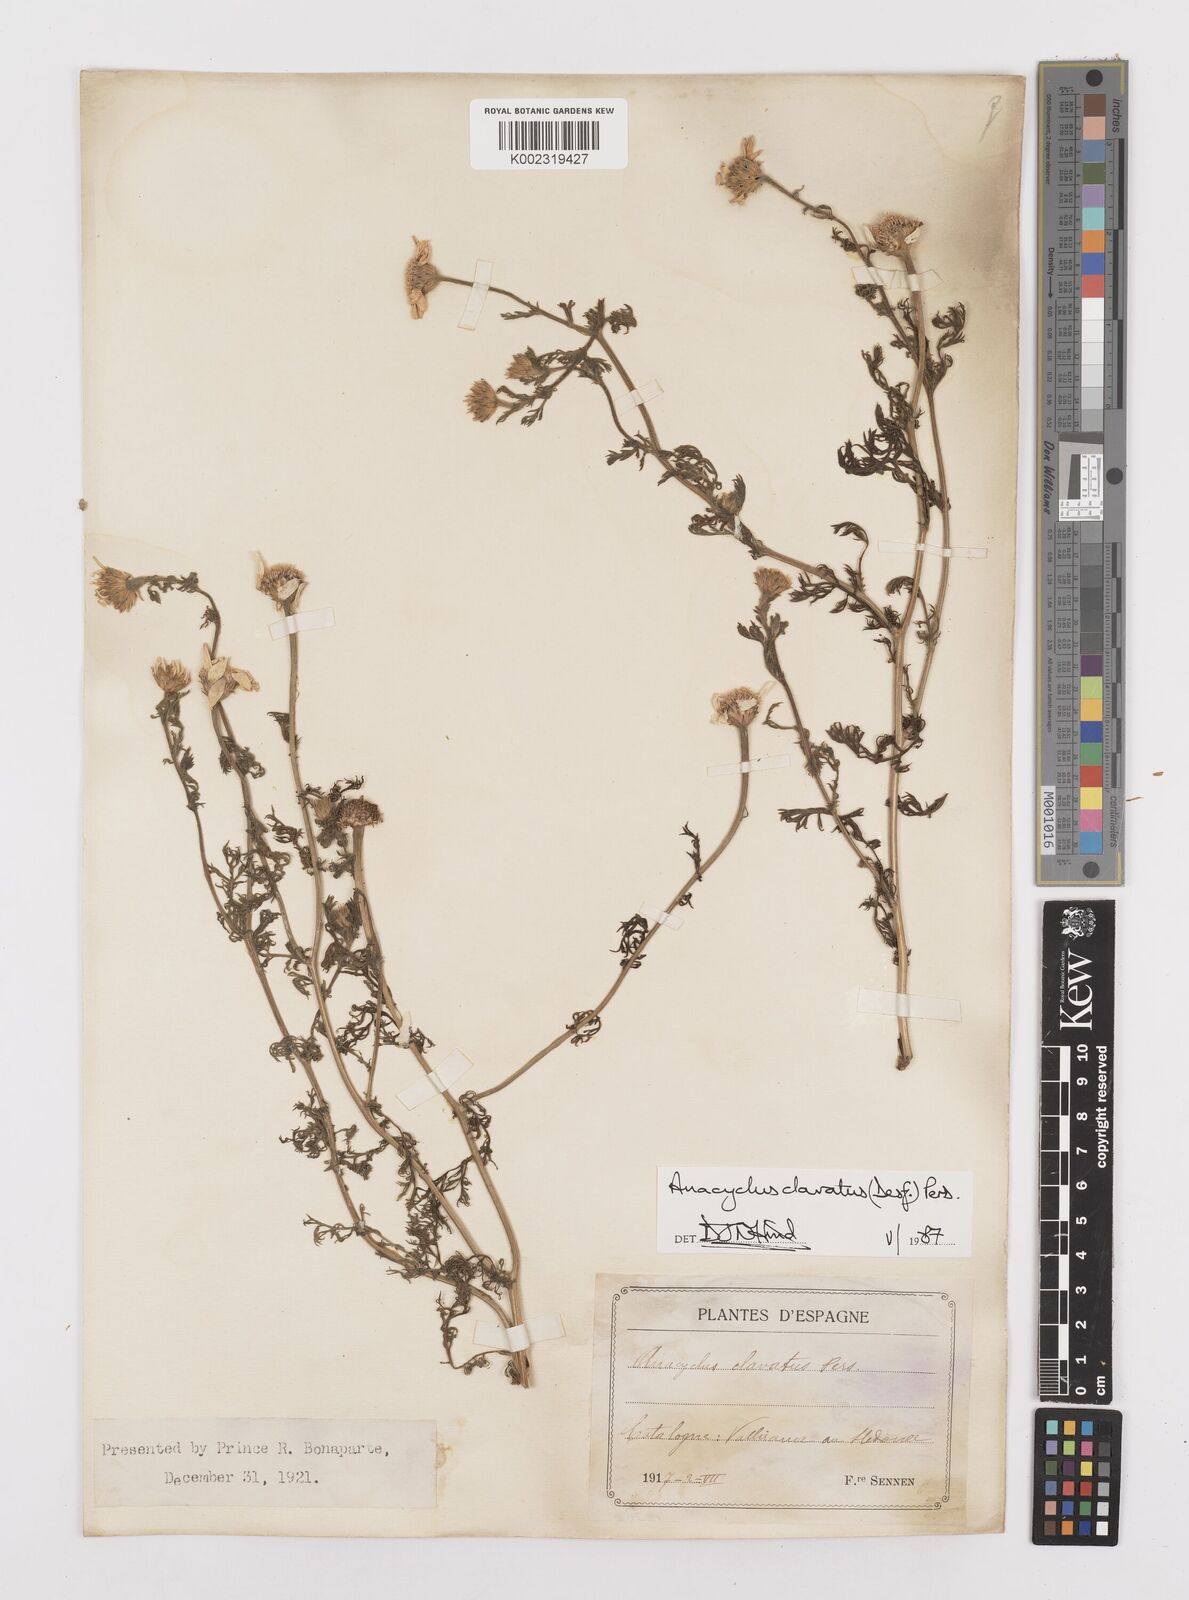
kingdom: Plantae
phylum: Tracheophyta
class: Magnoliopsida
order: Asterales
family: Asteraceae
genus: Anacyclus
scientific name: Anacyclus clavatus
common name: Whitebuttons
